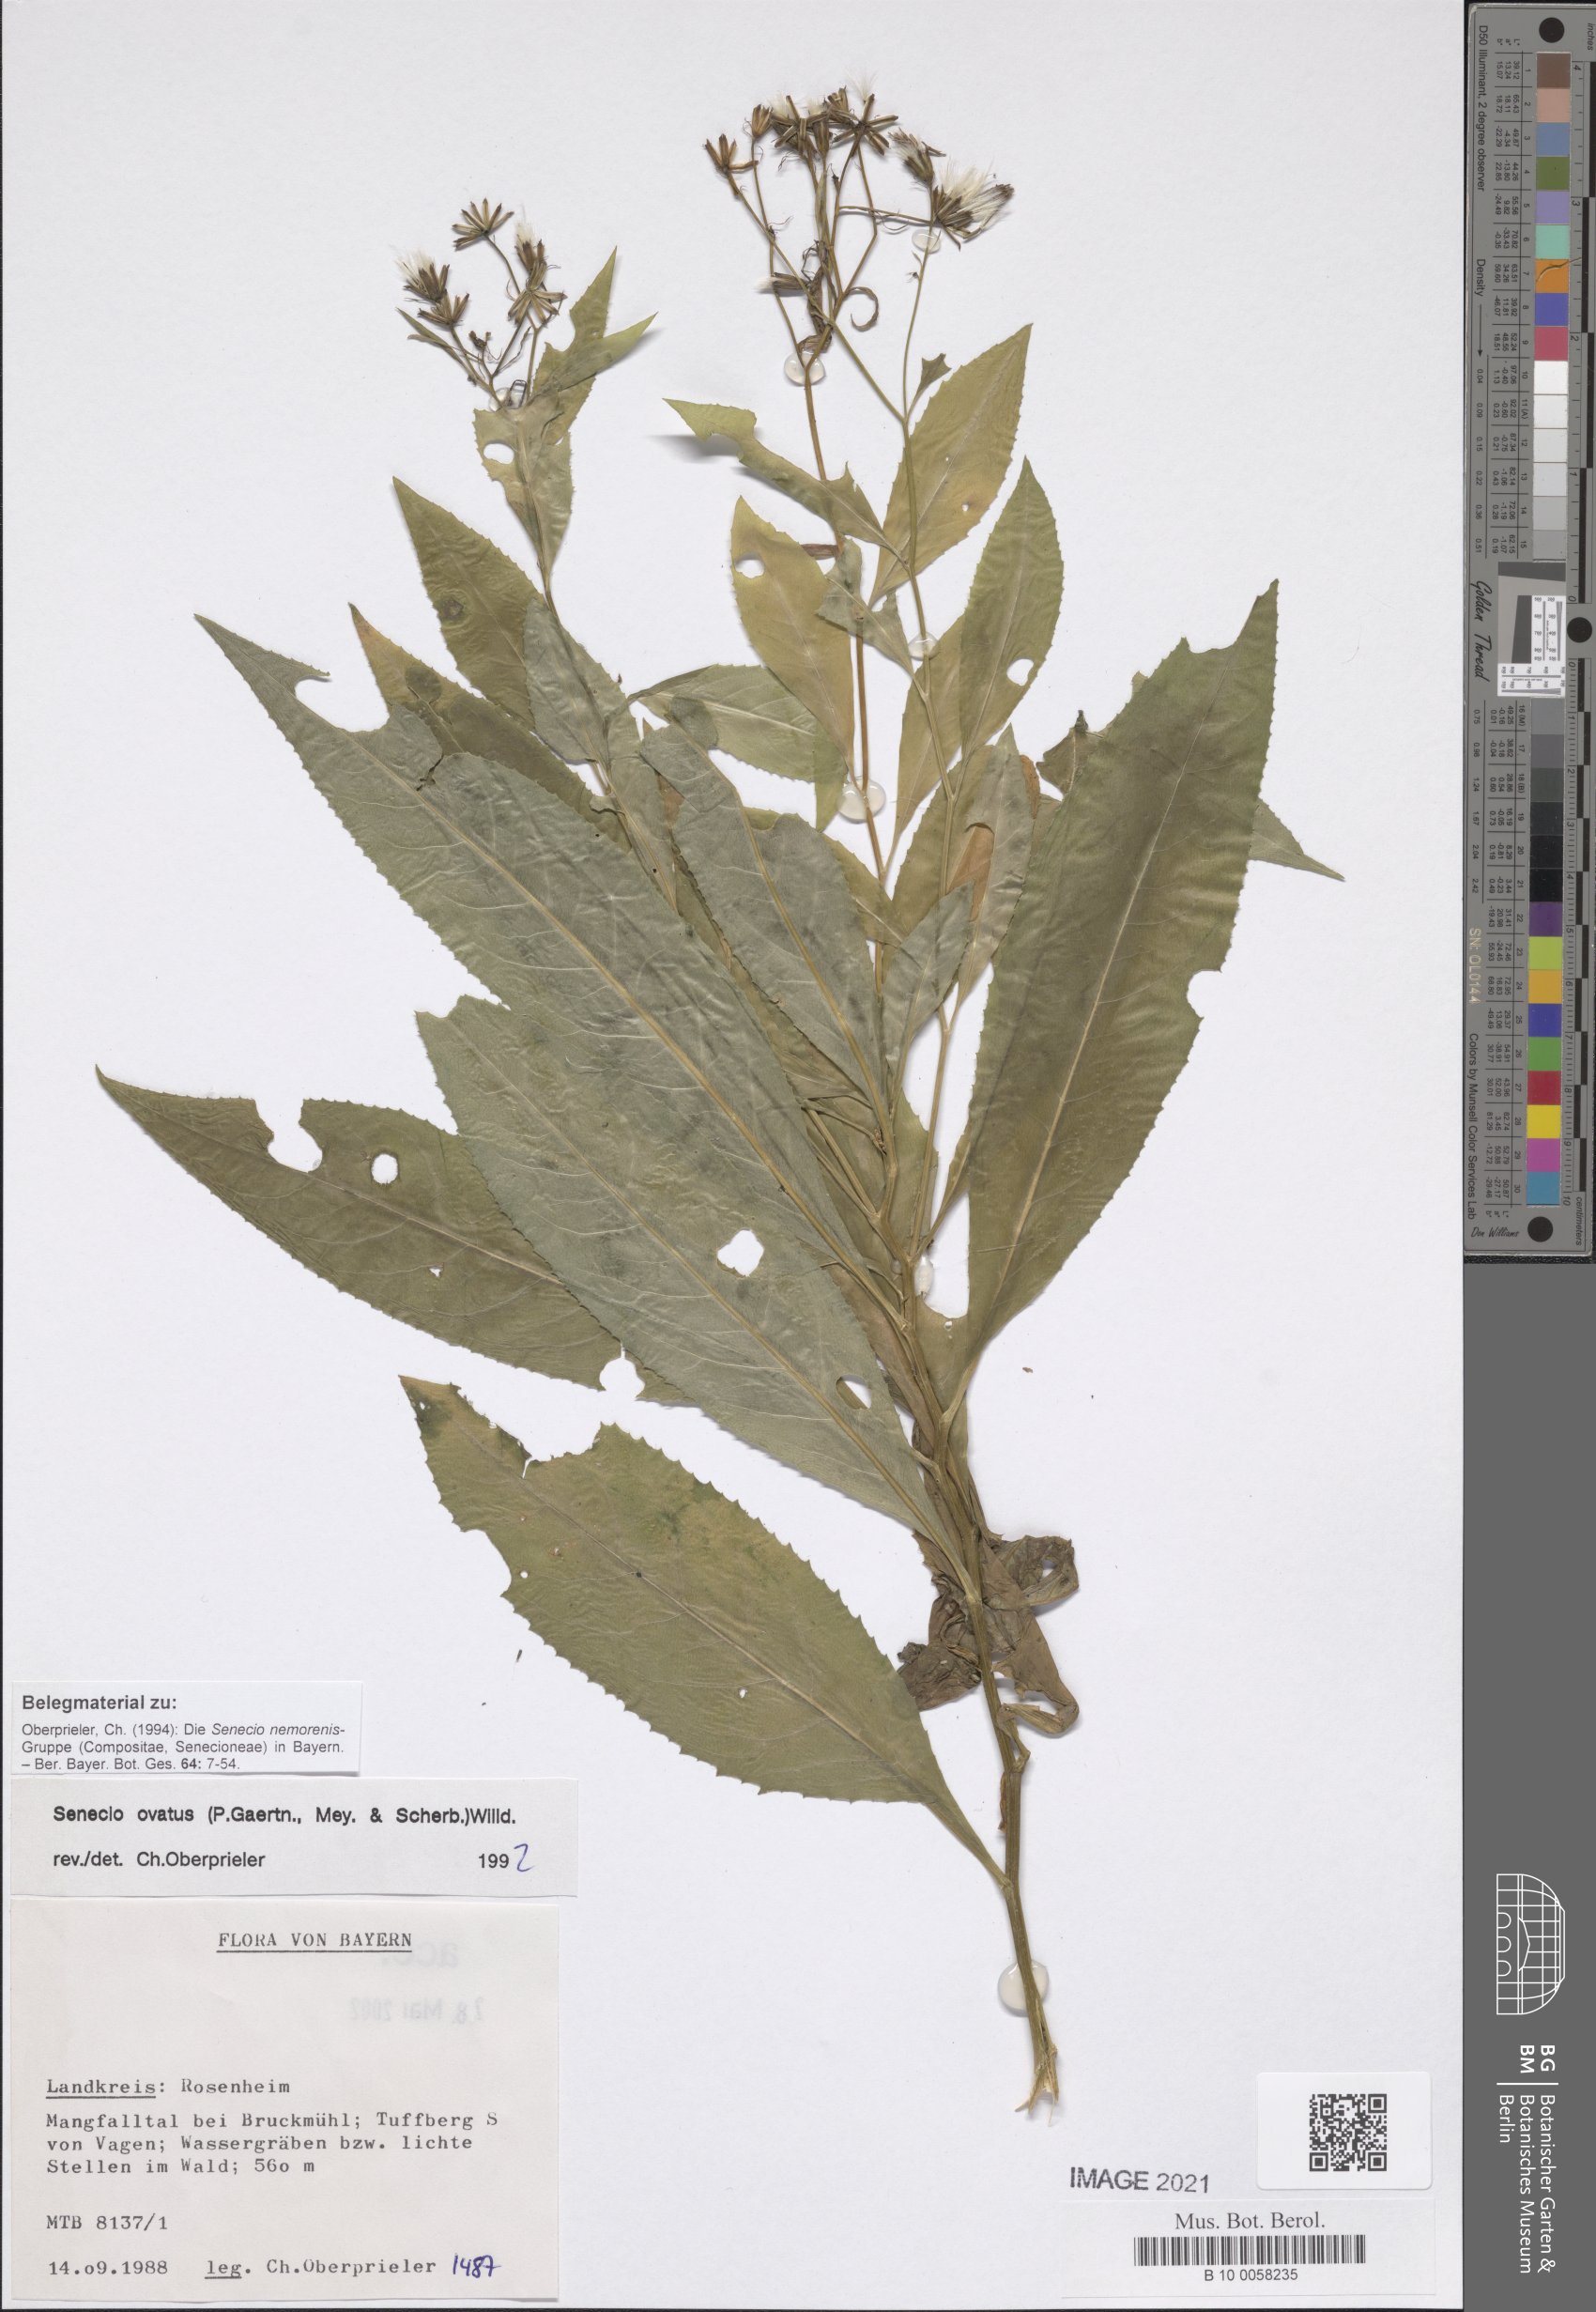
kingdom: Plantae
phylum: Tracheophyta
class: Magnoliopsida
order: Asterales
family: Asteraceae
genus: Senecio
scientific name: Senecio ovatus
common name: Wood ragwort
